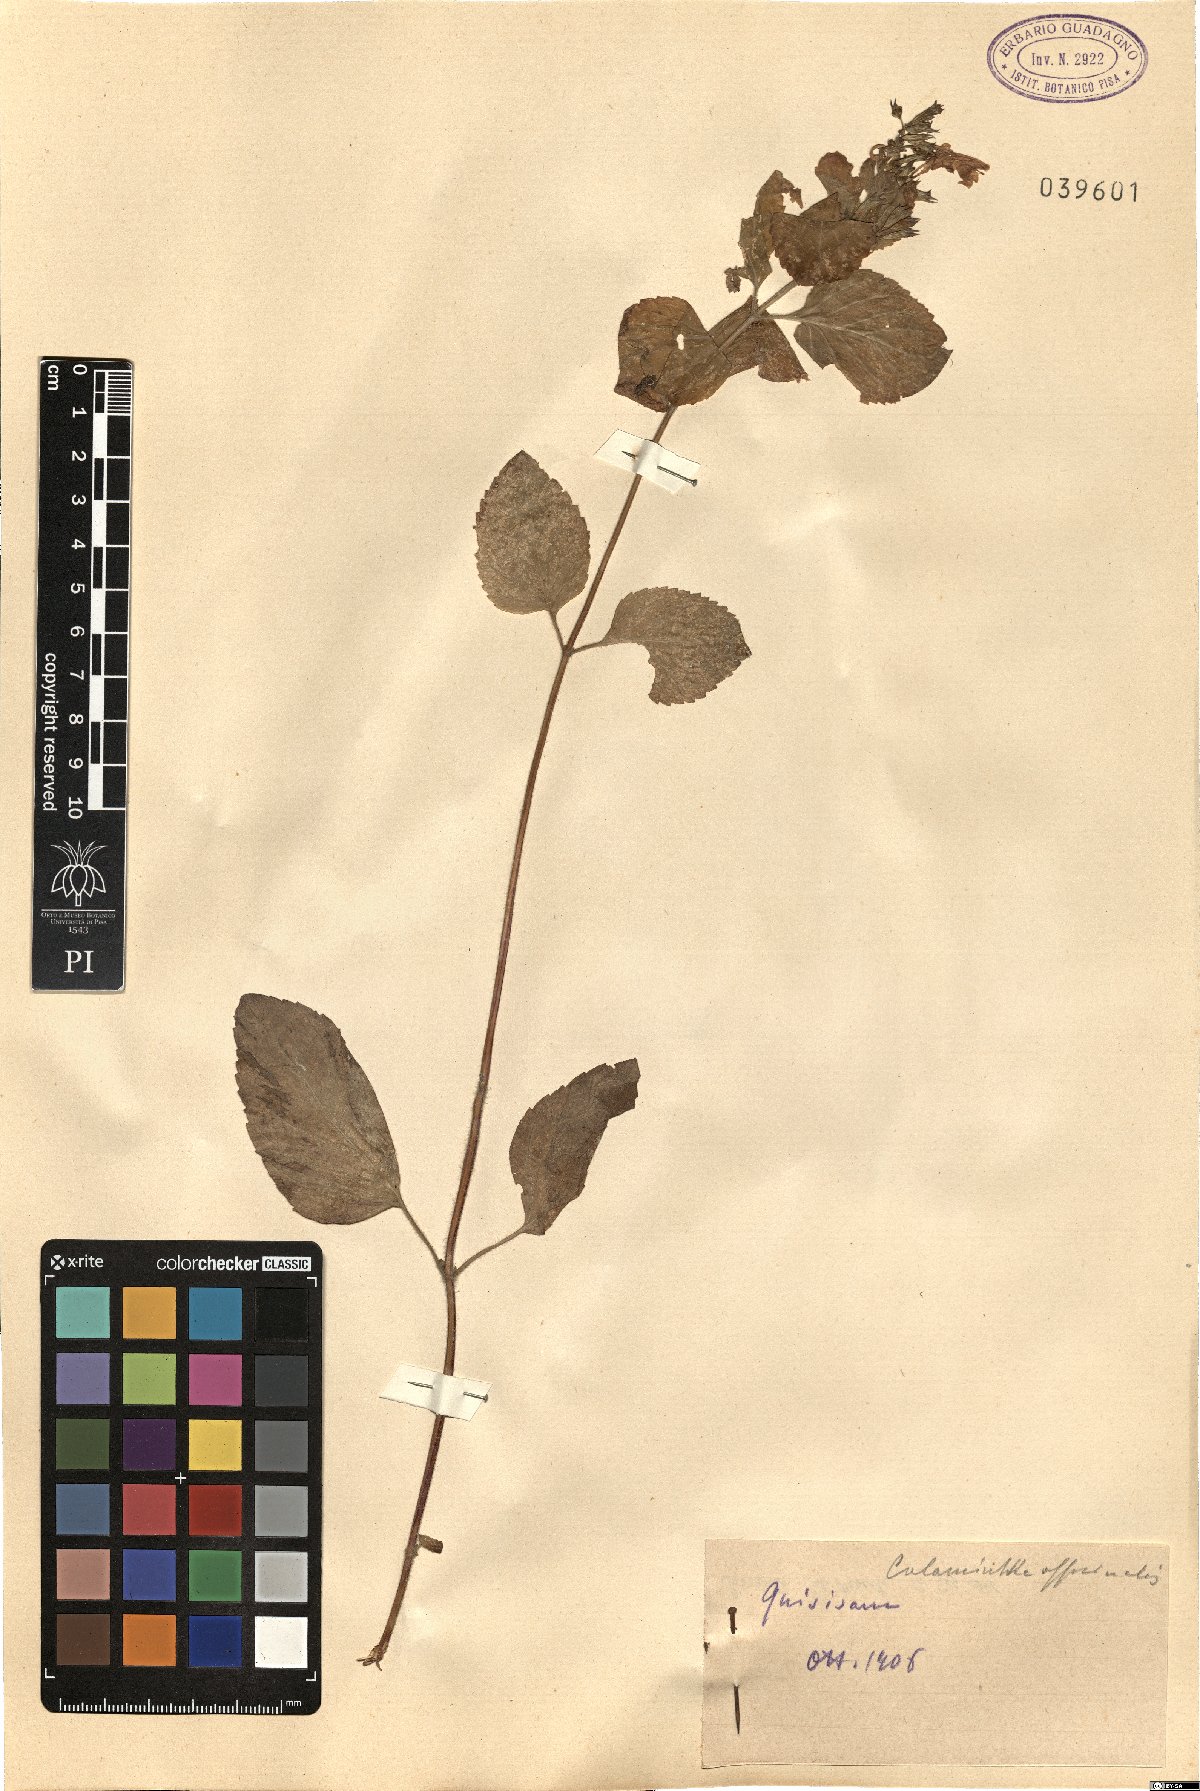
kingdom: Plantae
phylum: Tracheophyta
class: Magnoliopsida
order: Lamiales
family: Lamiaceae
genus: Clinopodium
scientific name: Clinopodium nepeta
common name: Lesser calamint
